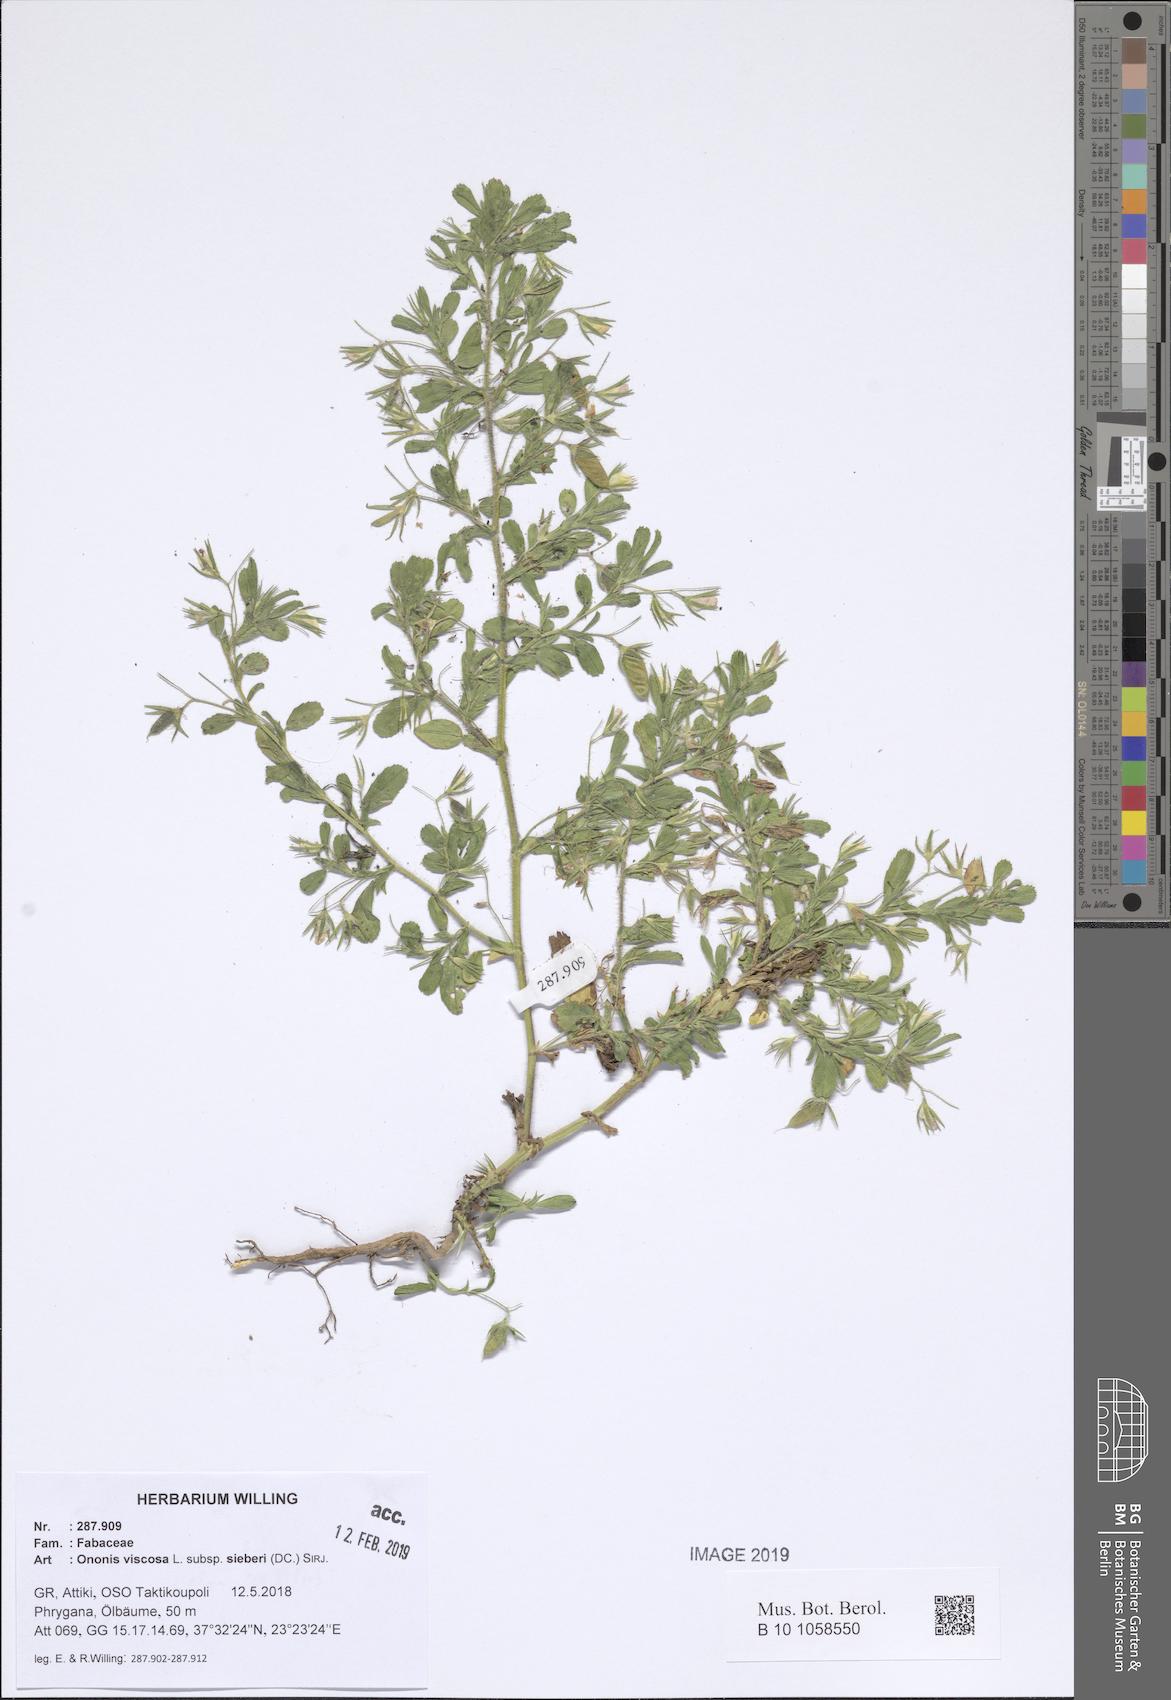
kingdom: Plantae
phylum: Tracheophyta
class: Magnoliopsida
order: Fabales
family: Fabaceae
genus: Ononis
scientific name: Ononis sieberi
